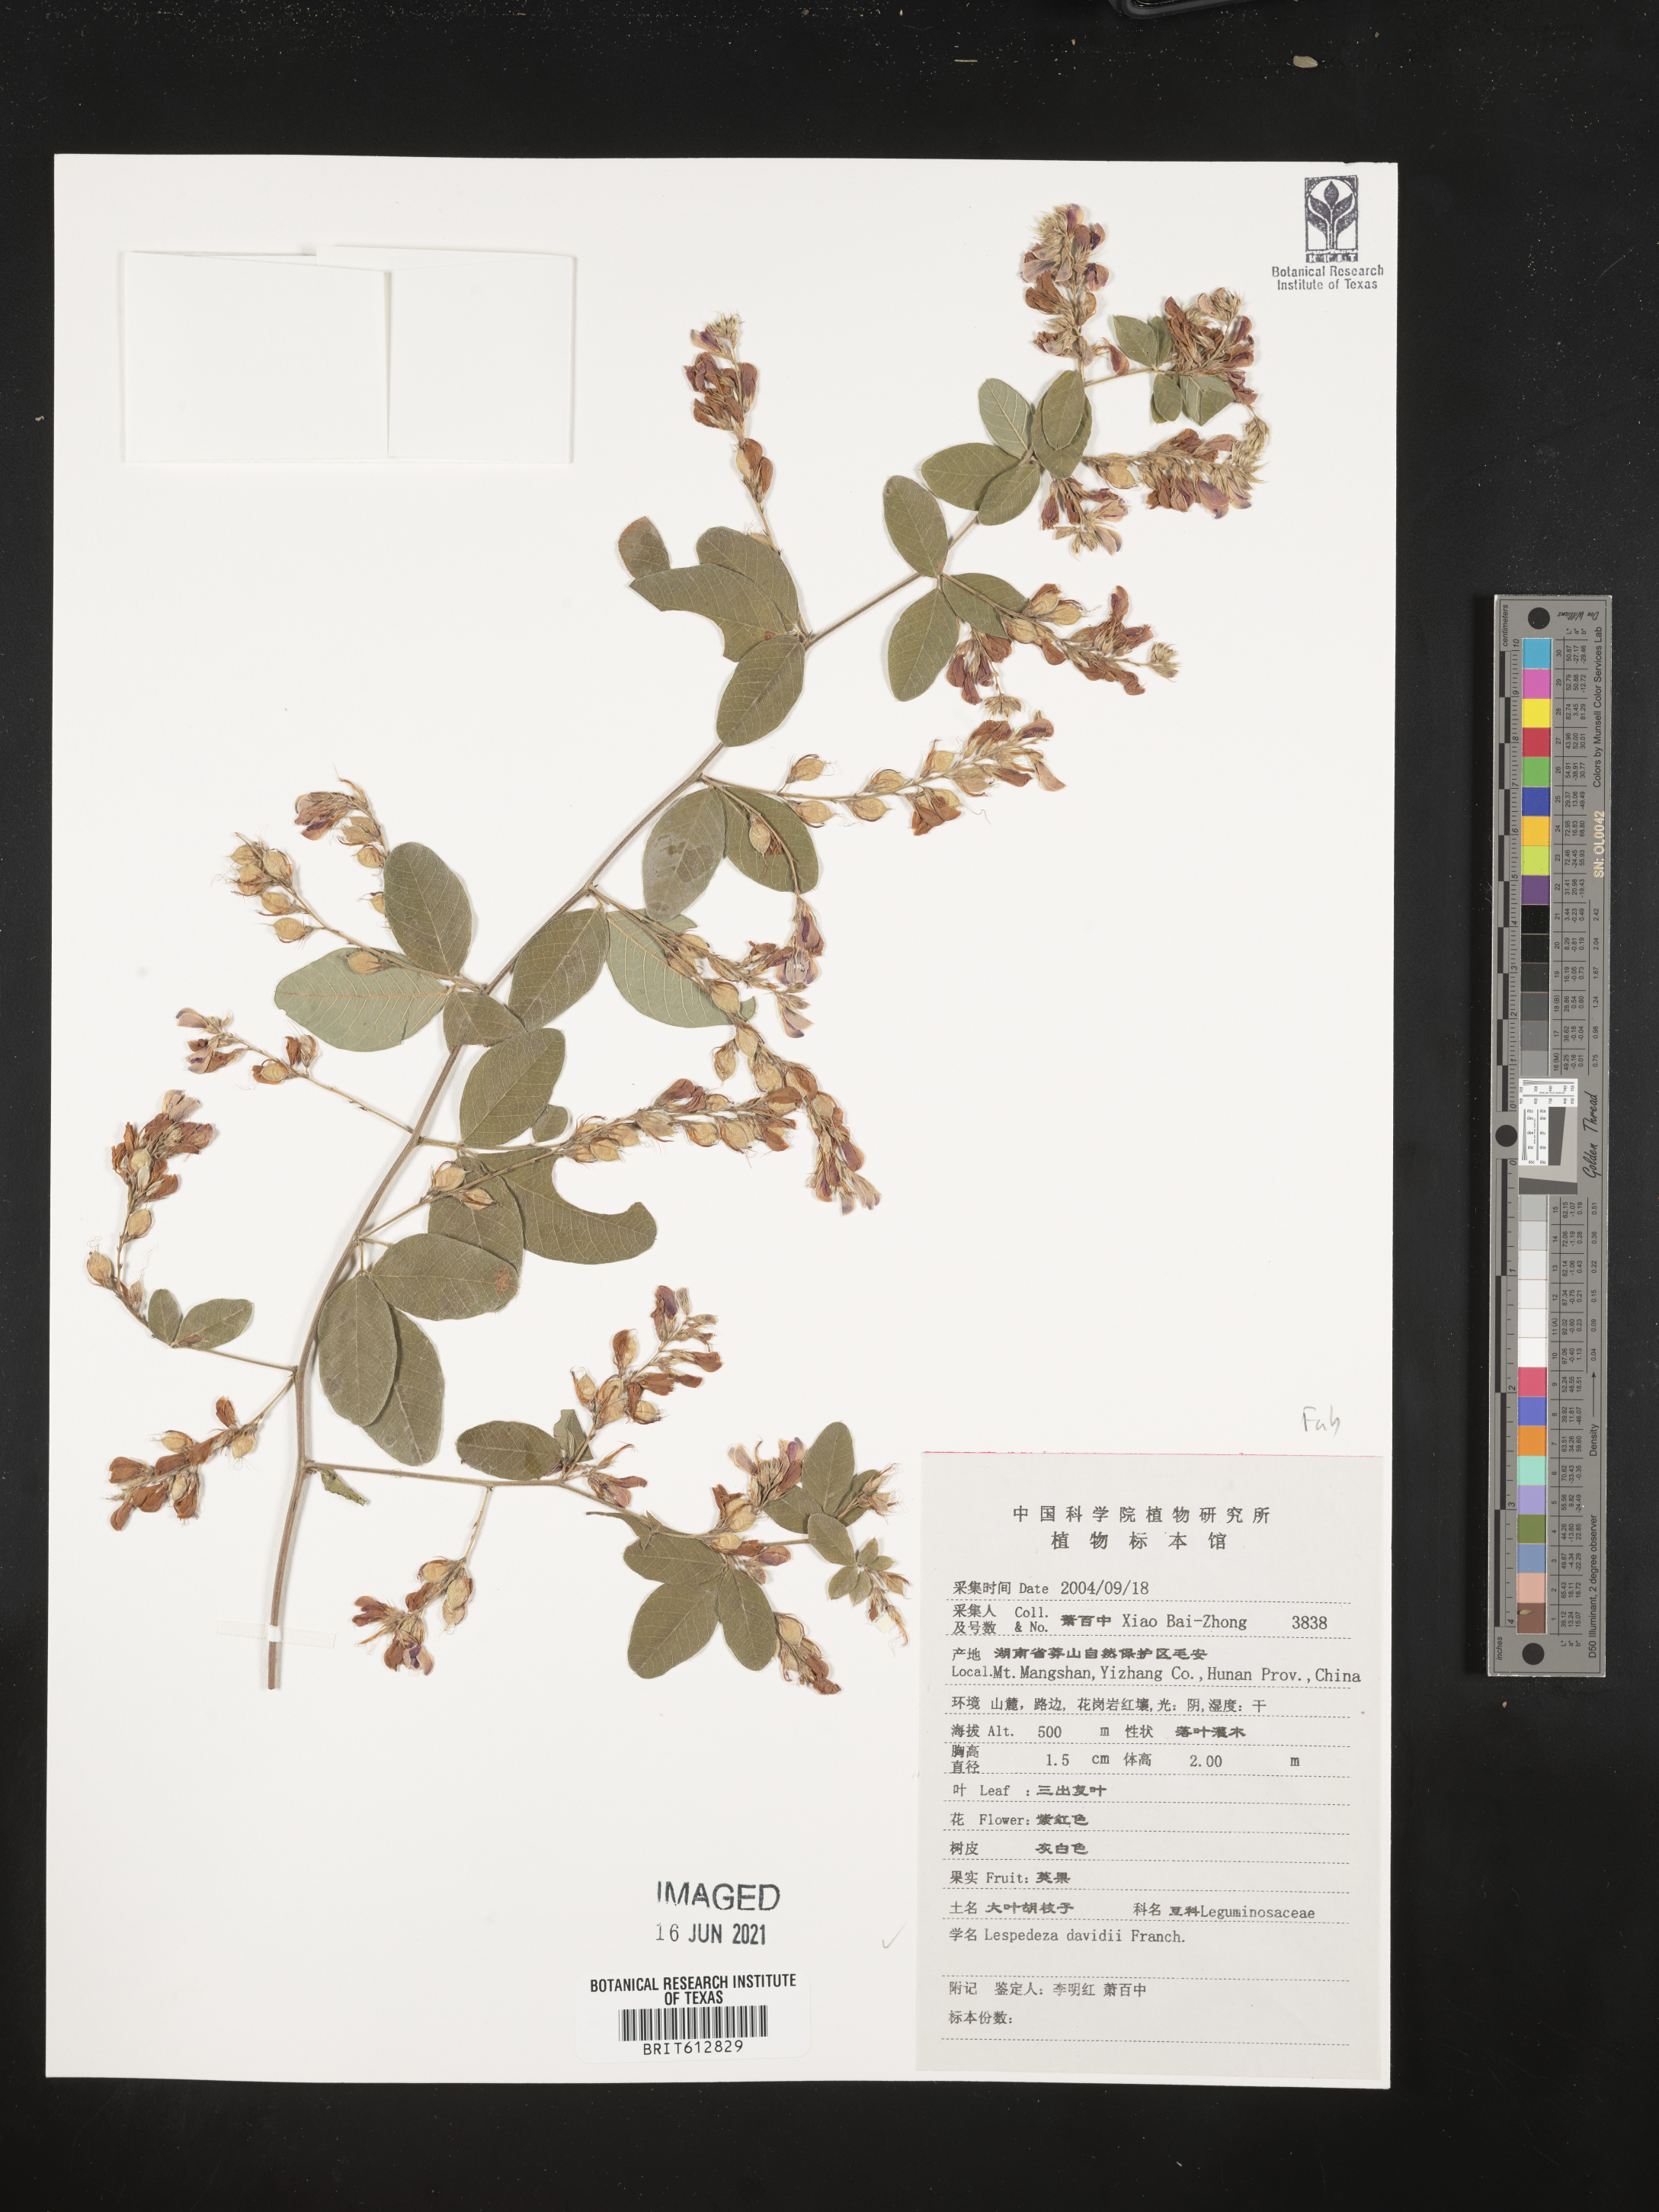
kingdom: Plantae
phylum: Tracheophyta
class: Magnoliopsida
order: Fabales
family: Fabaceae
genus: Lespedeza
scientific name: Lespedeza davidii
